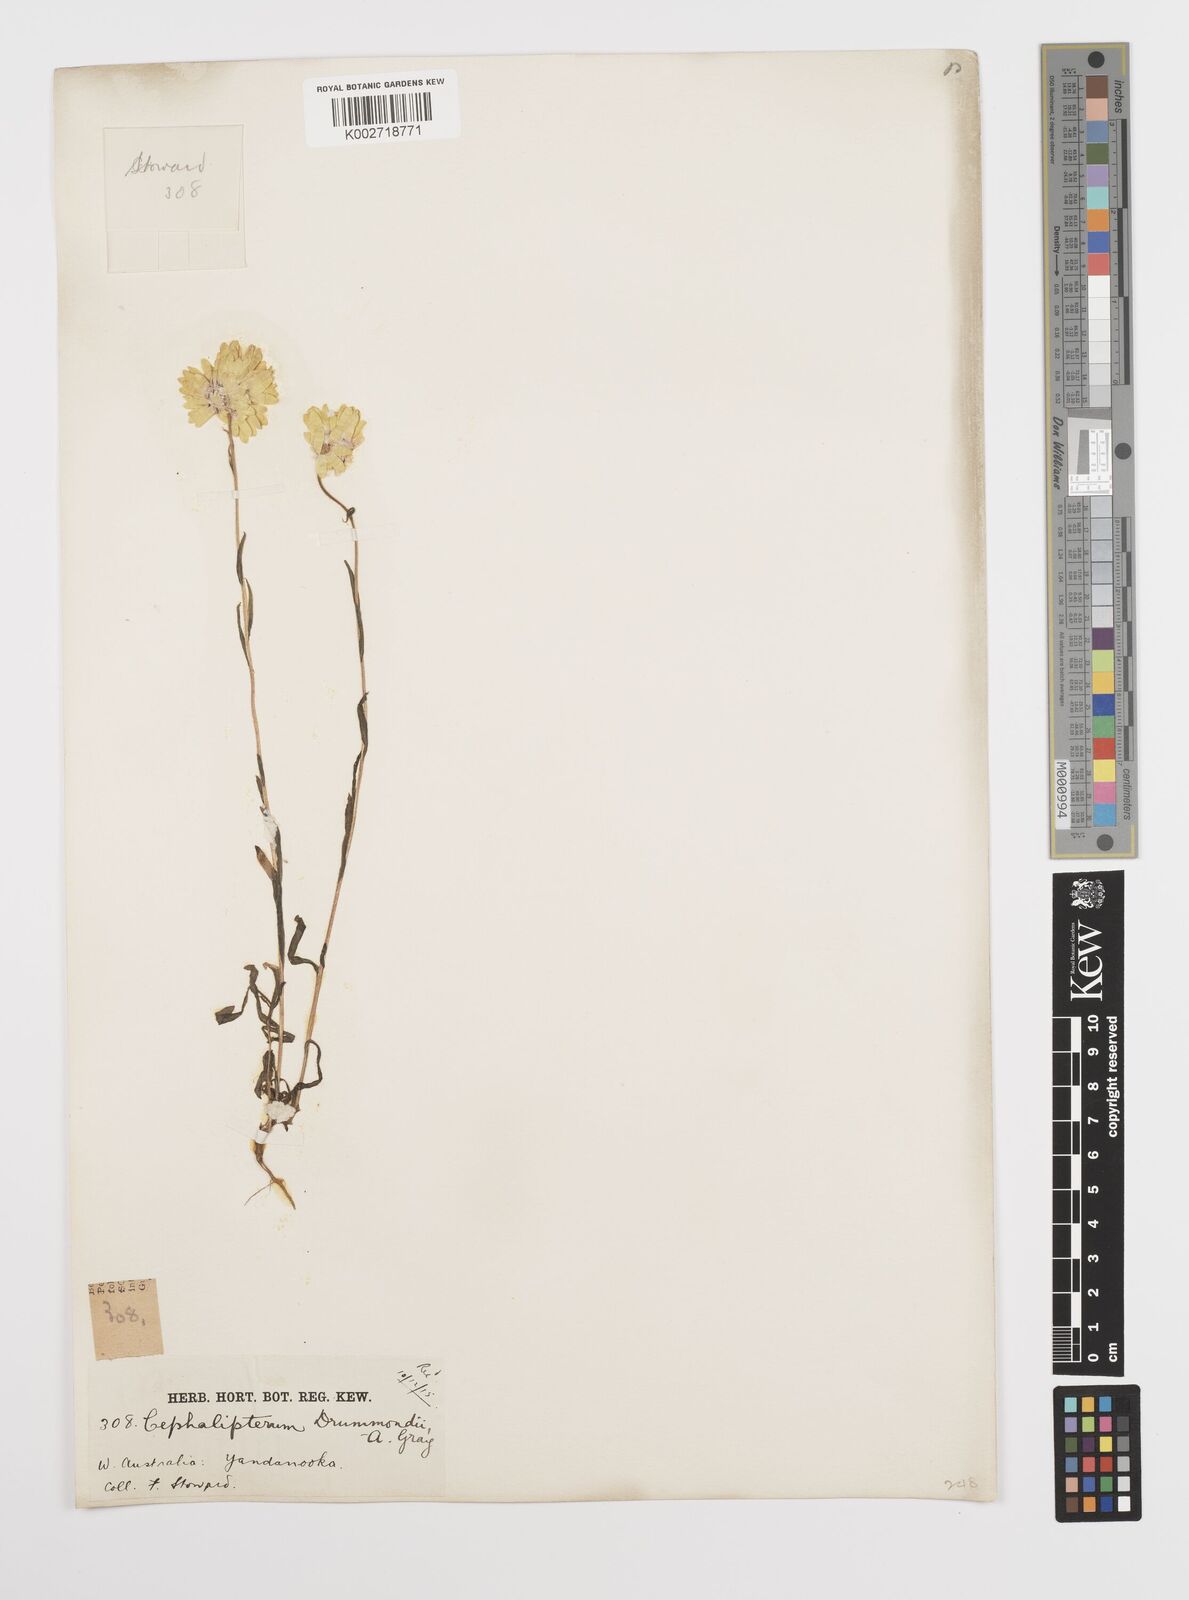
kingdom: Plantae
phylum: Tracheophyta
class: Magnoliopsida
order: Asterales
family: Asteraceae
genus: Cephalipterum
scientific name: Cephalipterum drummondii
